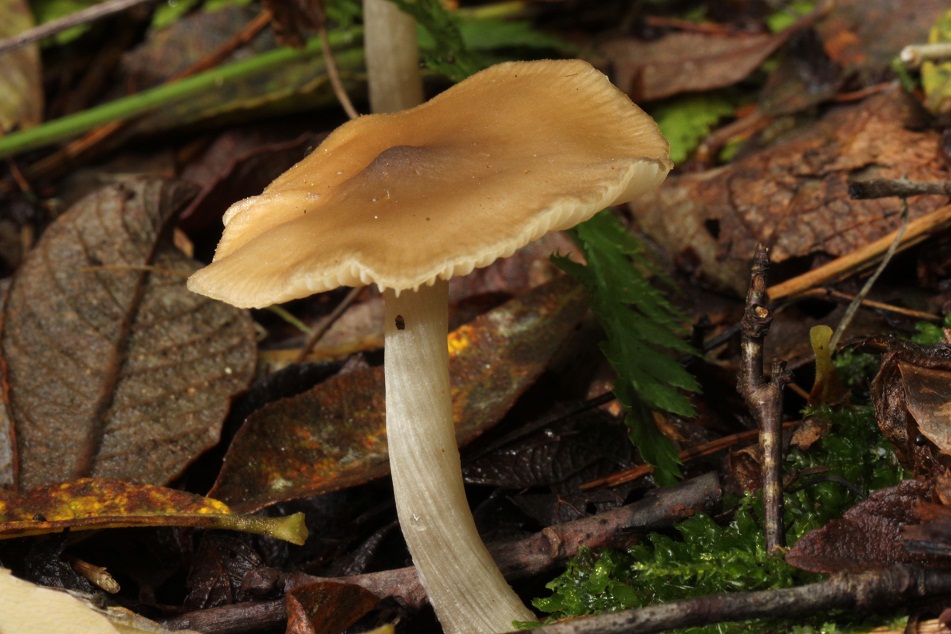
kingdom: Fungi
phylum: Basidiomycota
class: Agaricomycetes
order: Agaricales
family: Entolomataceae
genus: Entoloma
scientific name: Entoloma sericatum
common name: rank rødblad
